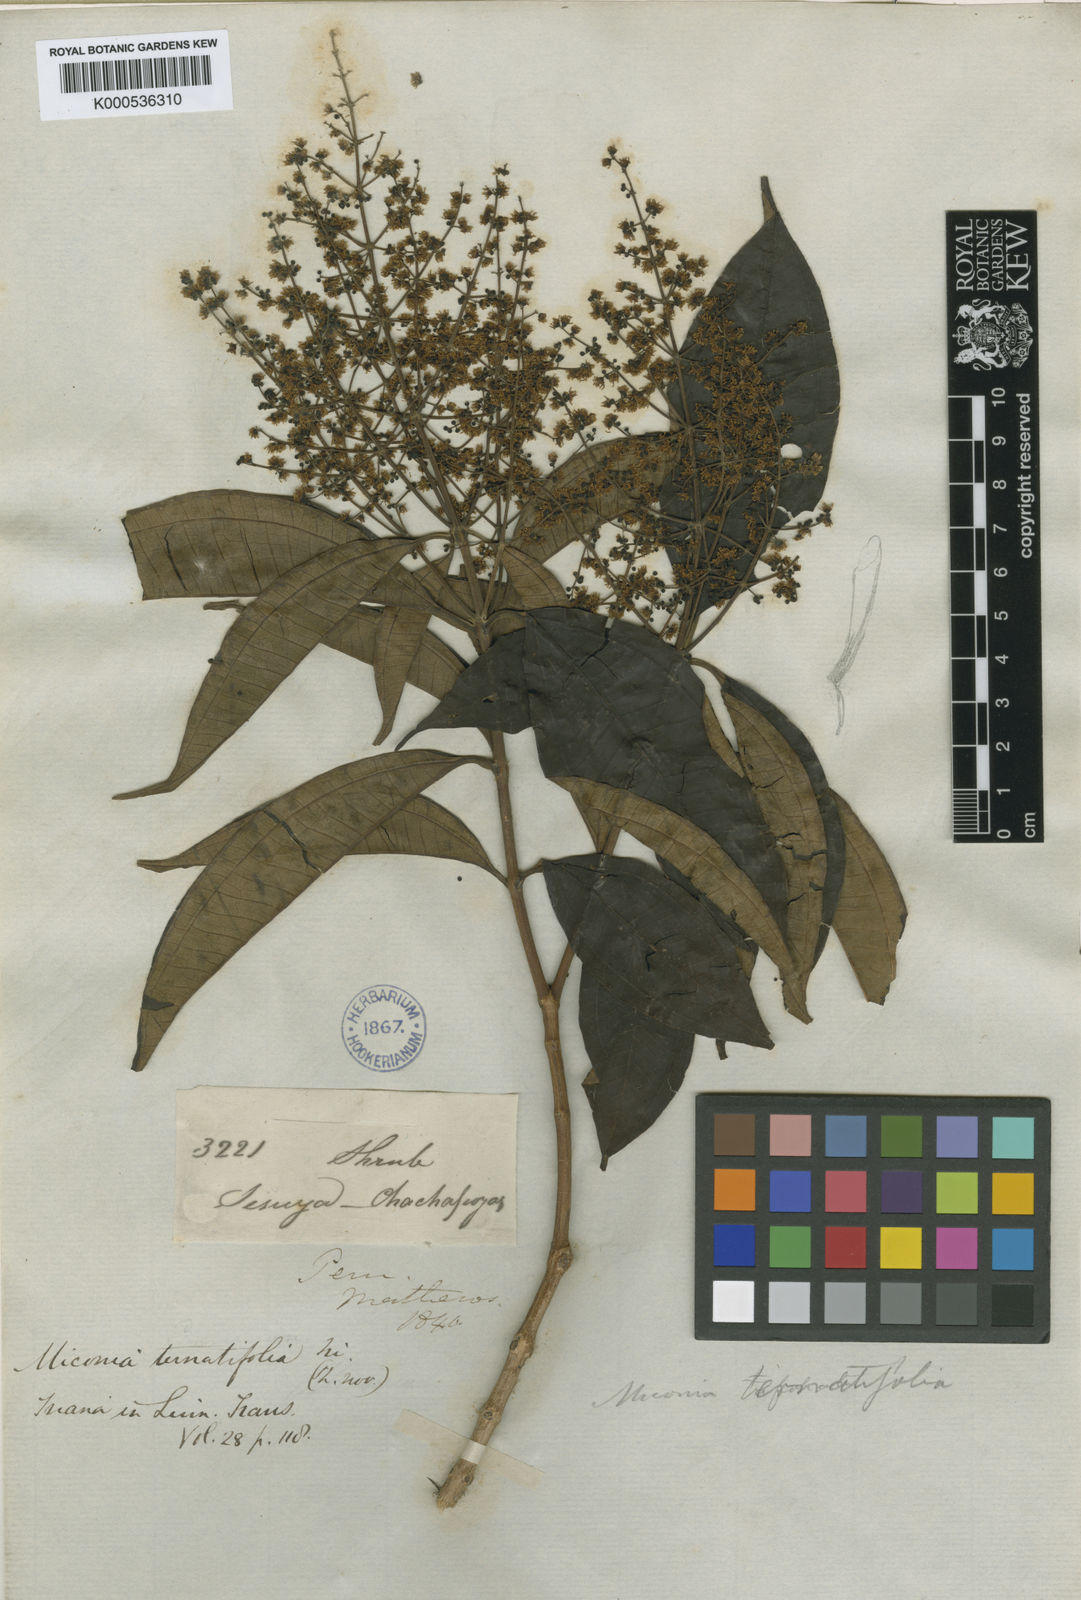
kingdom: Plantae
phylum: Tracheophyta
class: Magnoliopsida
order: Myrtales
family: Melastomataceae
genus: Miconia
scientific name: Miconia ternatifolia
